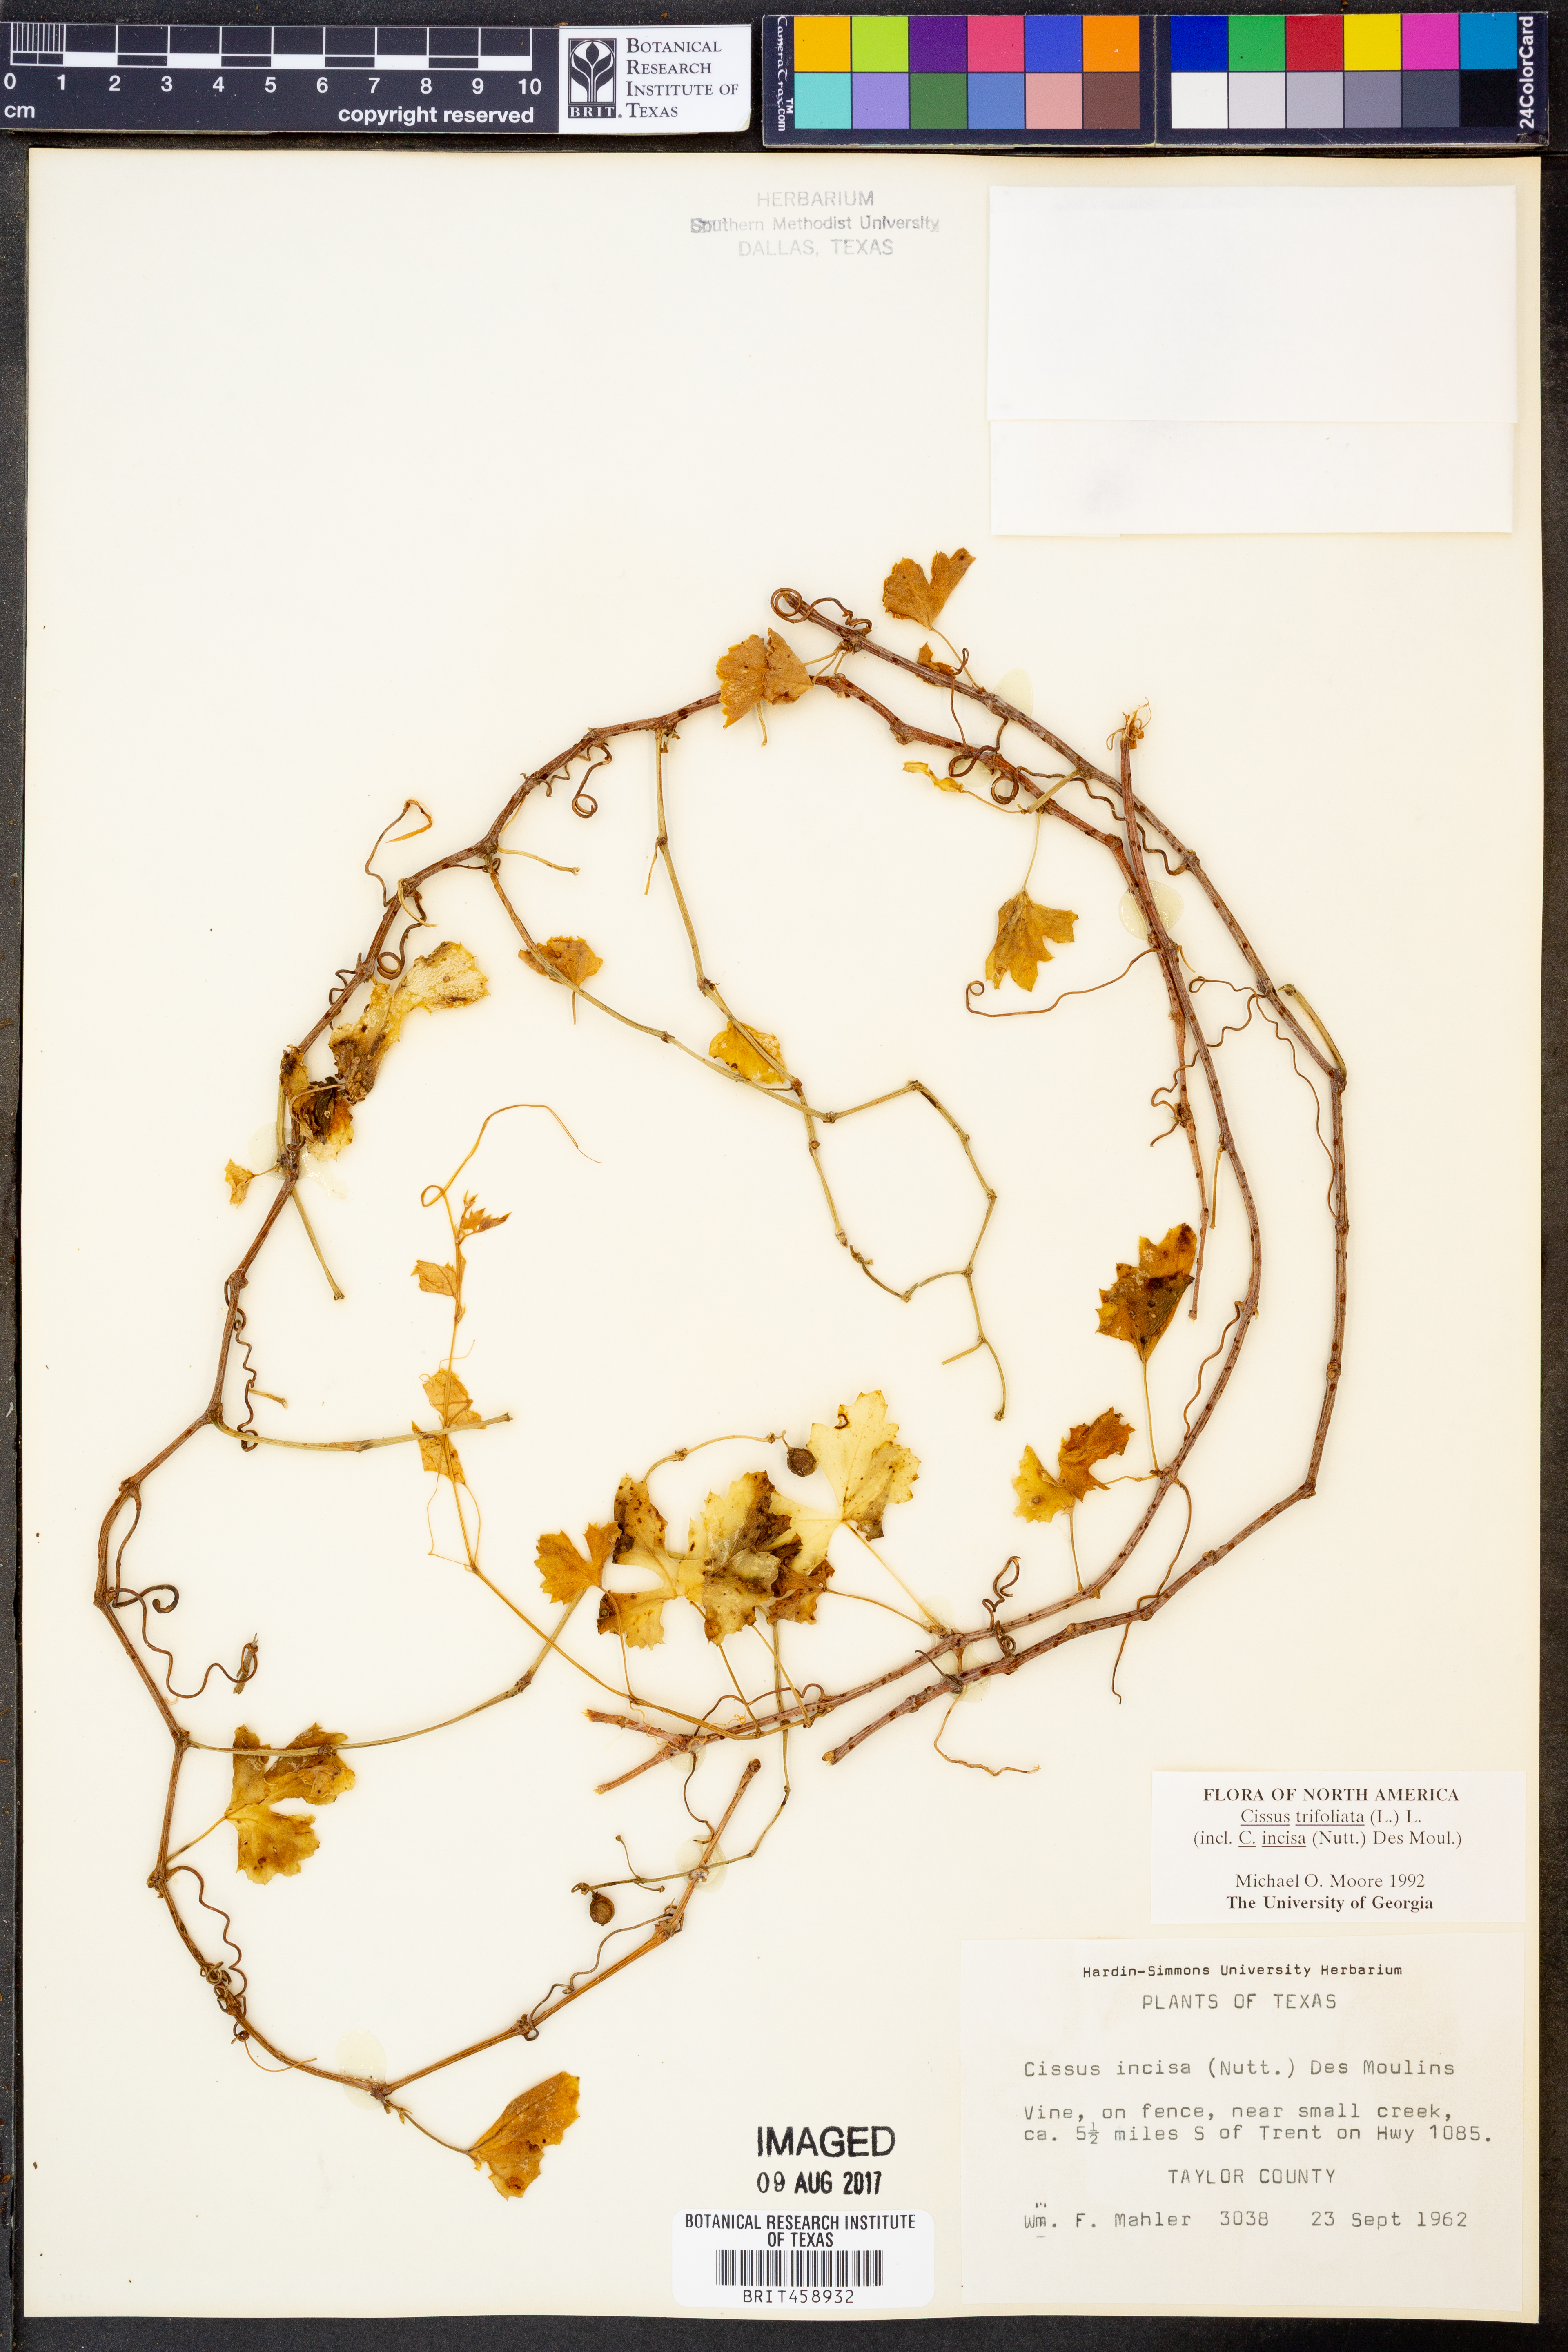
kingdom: Plantae
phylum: Tracheophyta
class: Magnoliopsida
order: Vitales
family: Vitaceae
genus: Cissus
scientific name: Cissus trifoliata
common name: Vine-sorrel
